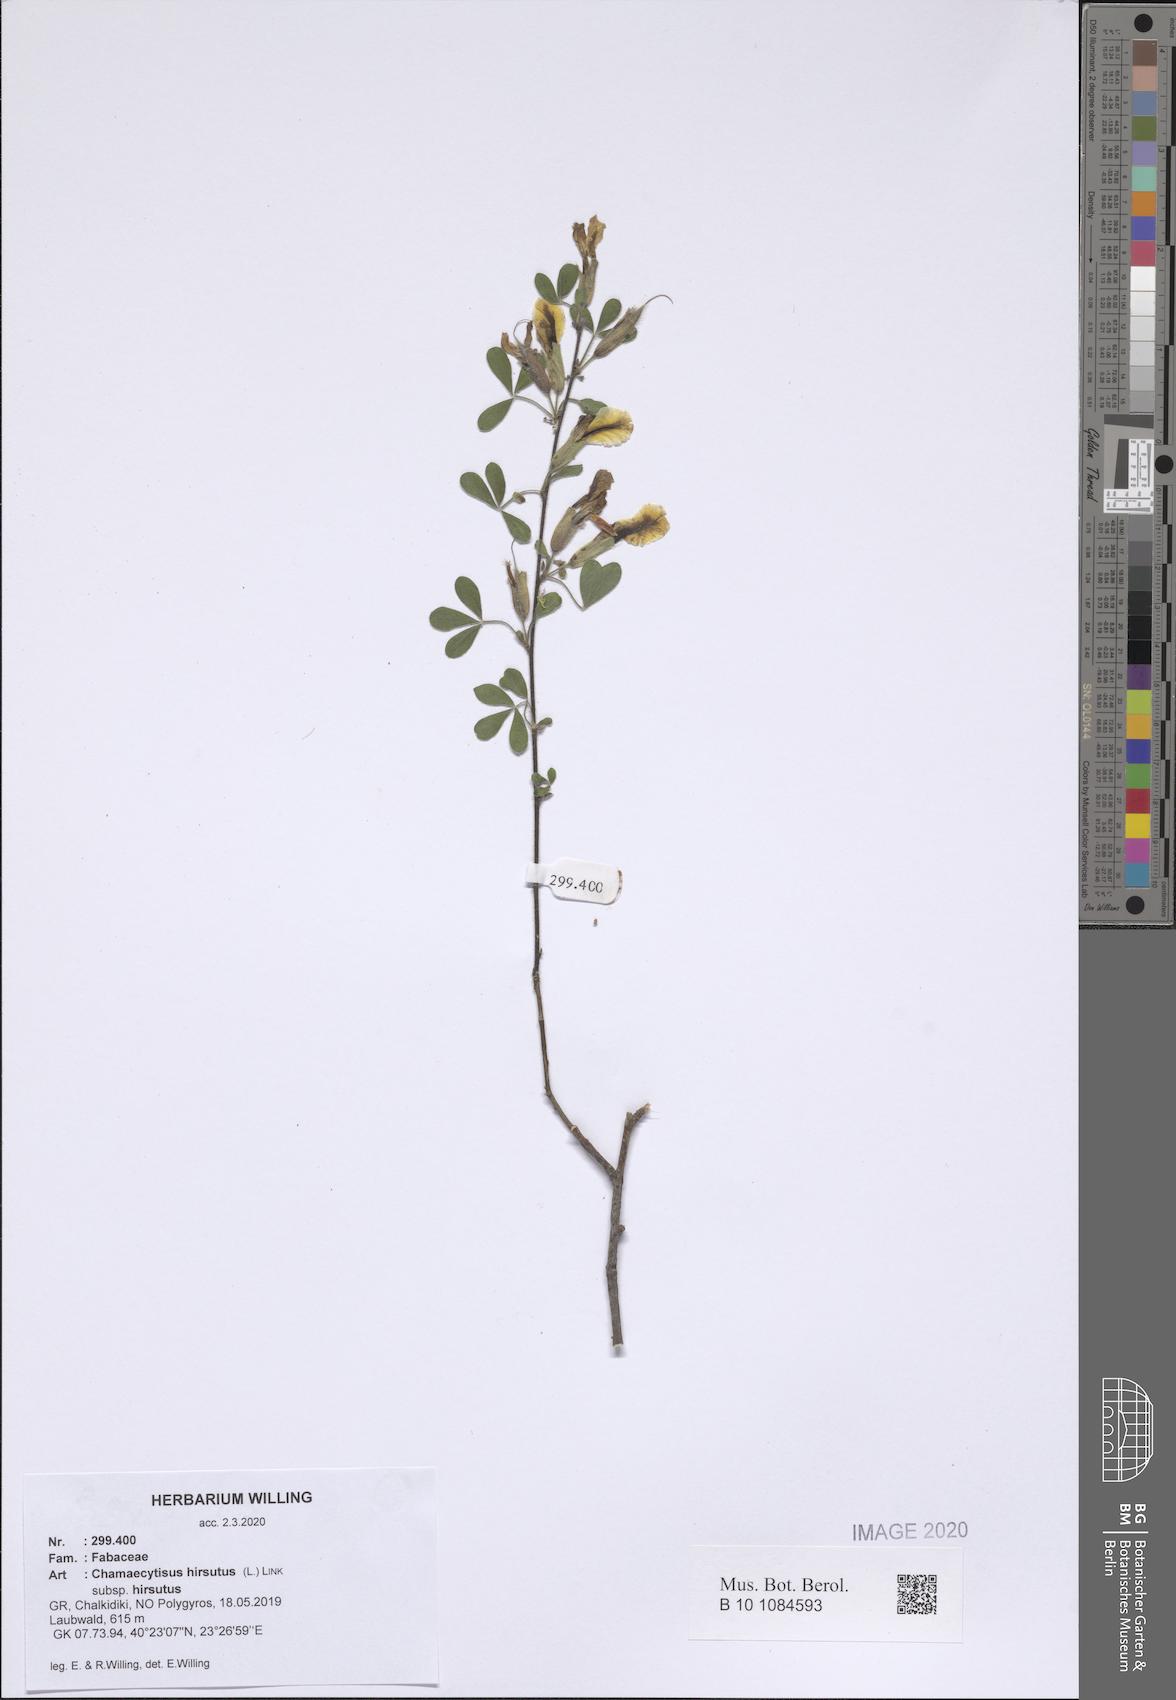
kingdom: Plantae
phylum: Tracheophyta
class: Magnoliopsida
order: Fabales
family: Fabaceae
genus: Chamaecytisus
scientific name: Chamaecytisus hirsutus
